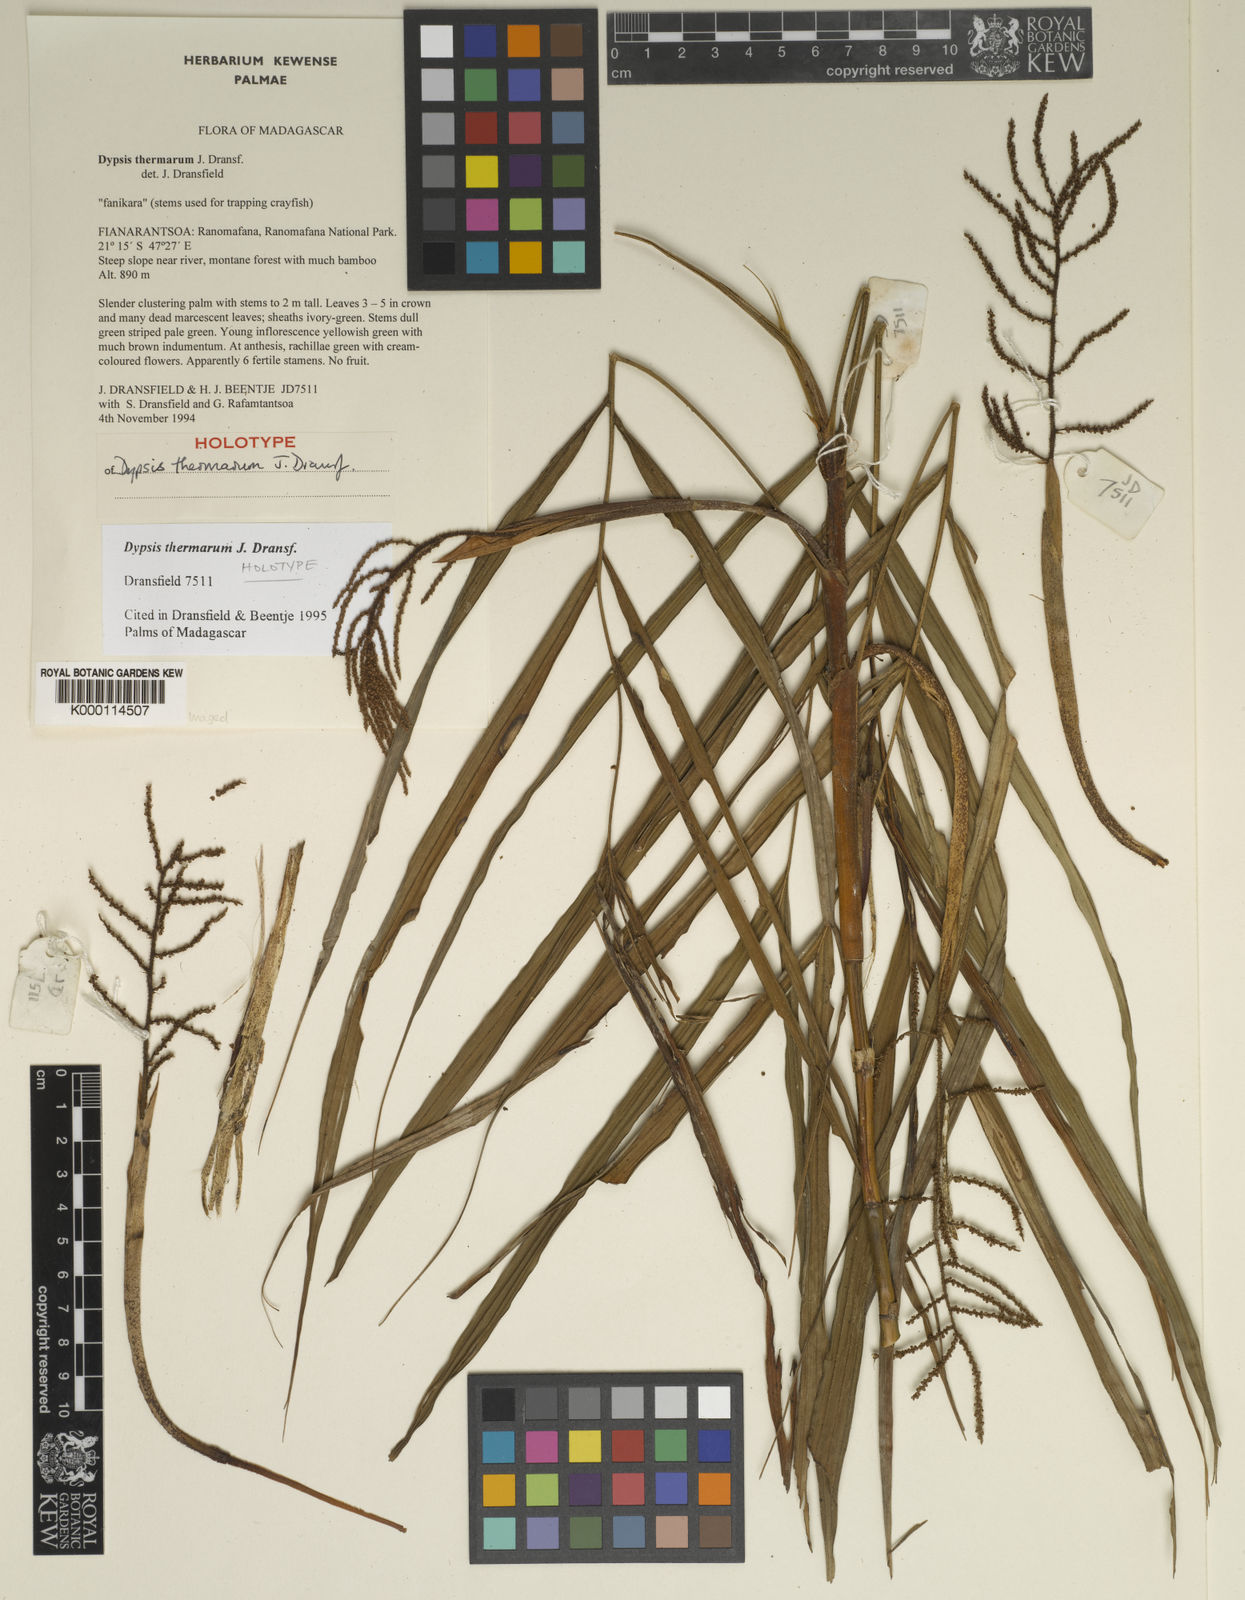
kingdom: Plantae
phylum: Tracheophyta
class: Liliopsida
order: Arecales
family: Arecaceae
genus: Dypsis
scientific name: Dypsis thermarum
